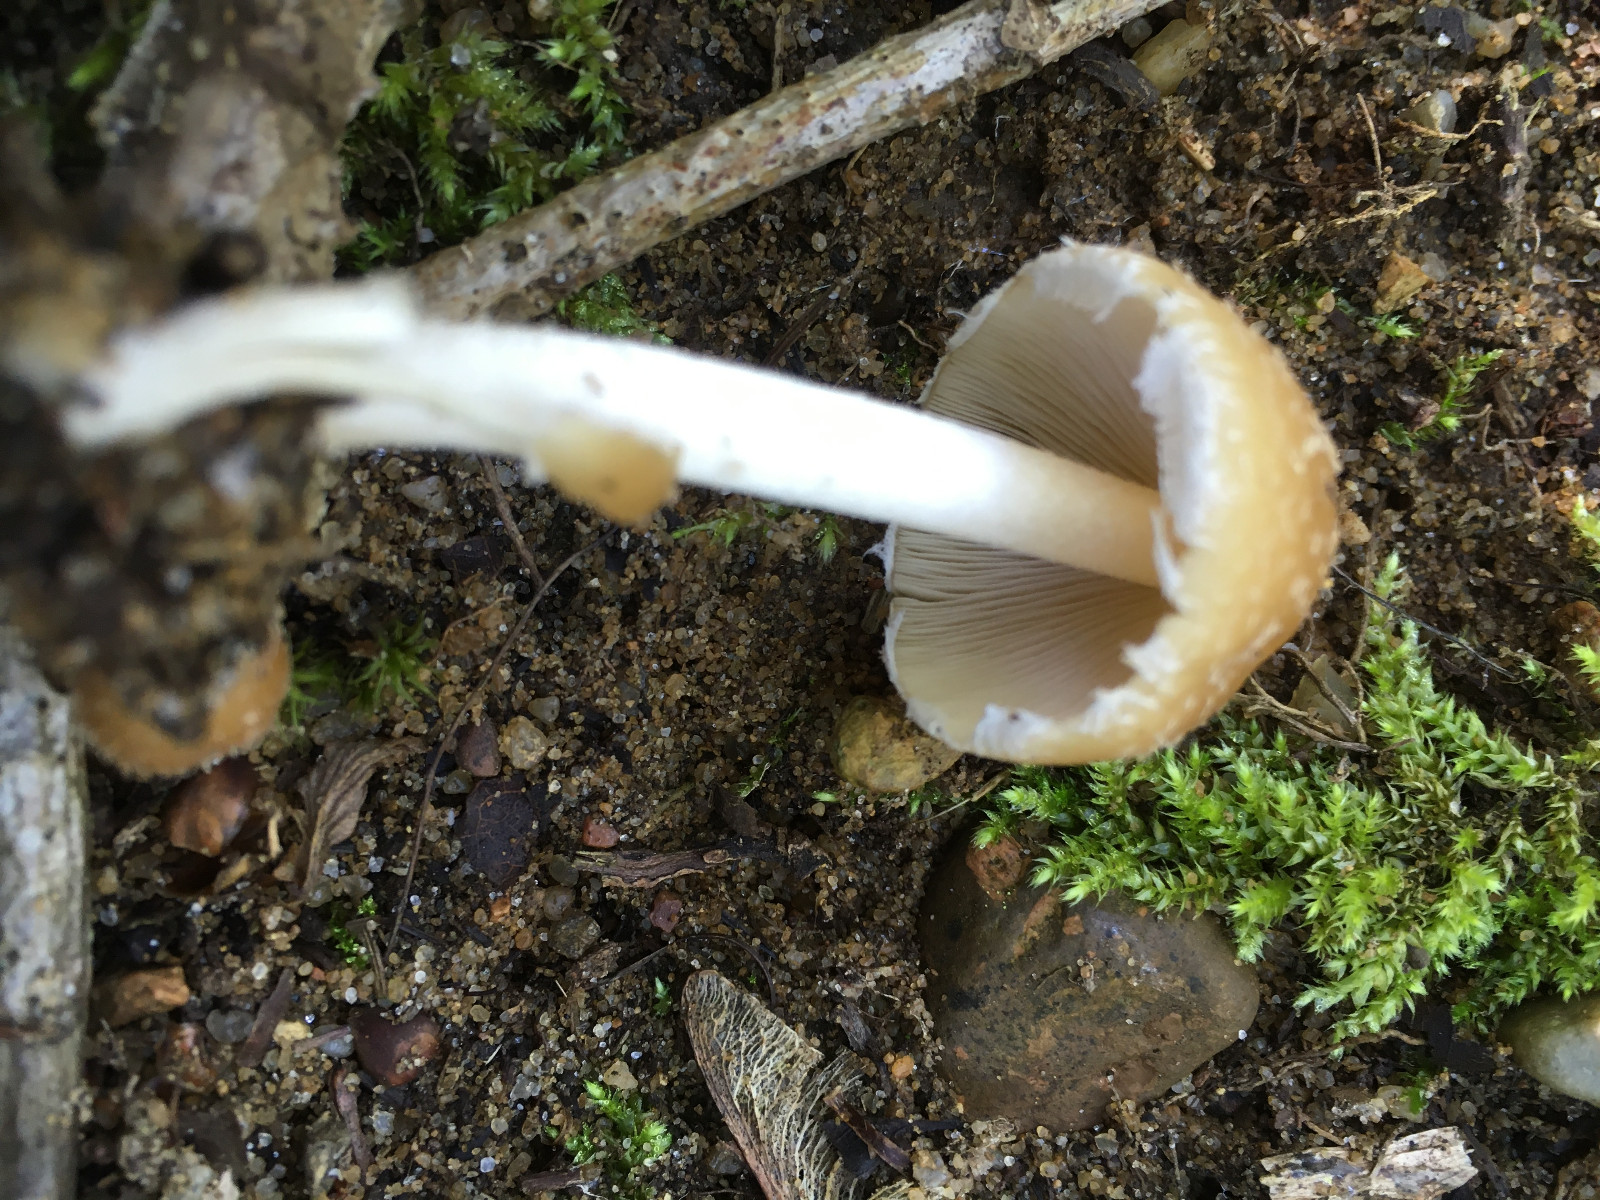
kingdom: Fungi
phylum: Basidiomycota
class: Agaricomycetes
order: Agaricales
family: Psathyrellaceae
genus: Candolleomyces
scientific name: Candolleomyces candolleanus
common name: Candolles mørkhat
